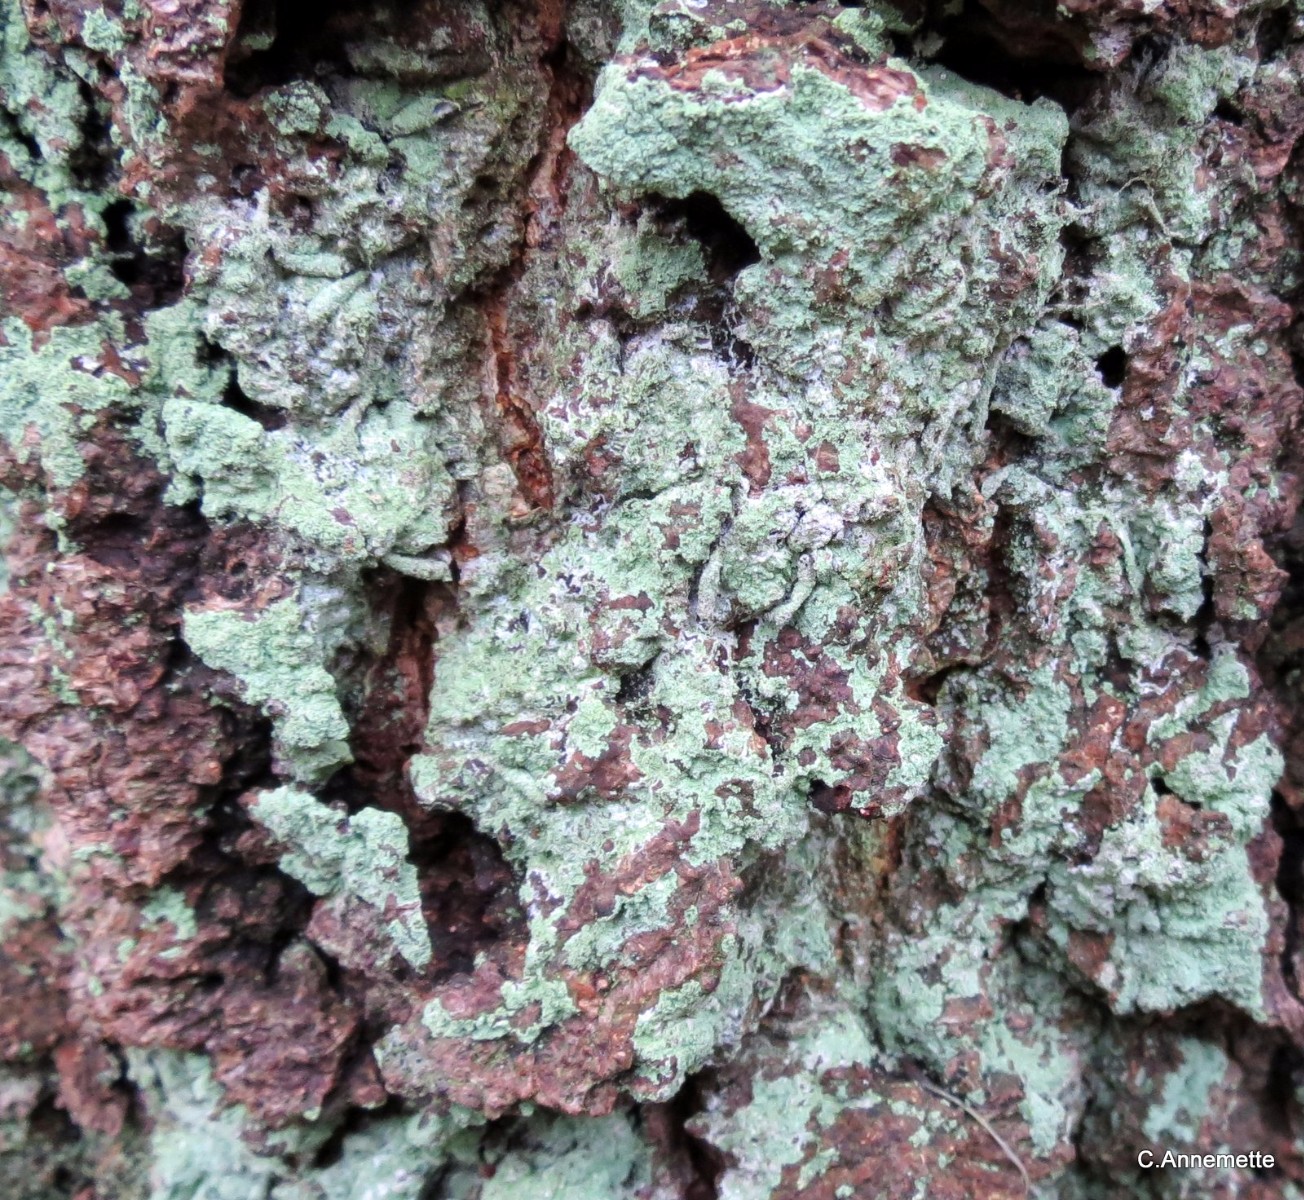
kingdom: Fungi
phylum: Ascomycota
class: Lecanoromycetes
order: Lecanorales
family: Stereocaulaceae
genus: Lepraria
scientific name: Lepraria incana
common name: almindelig støvlav
